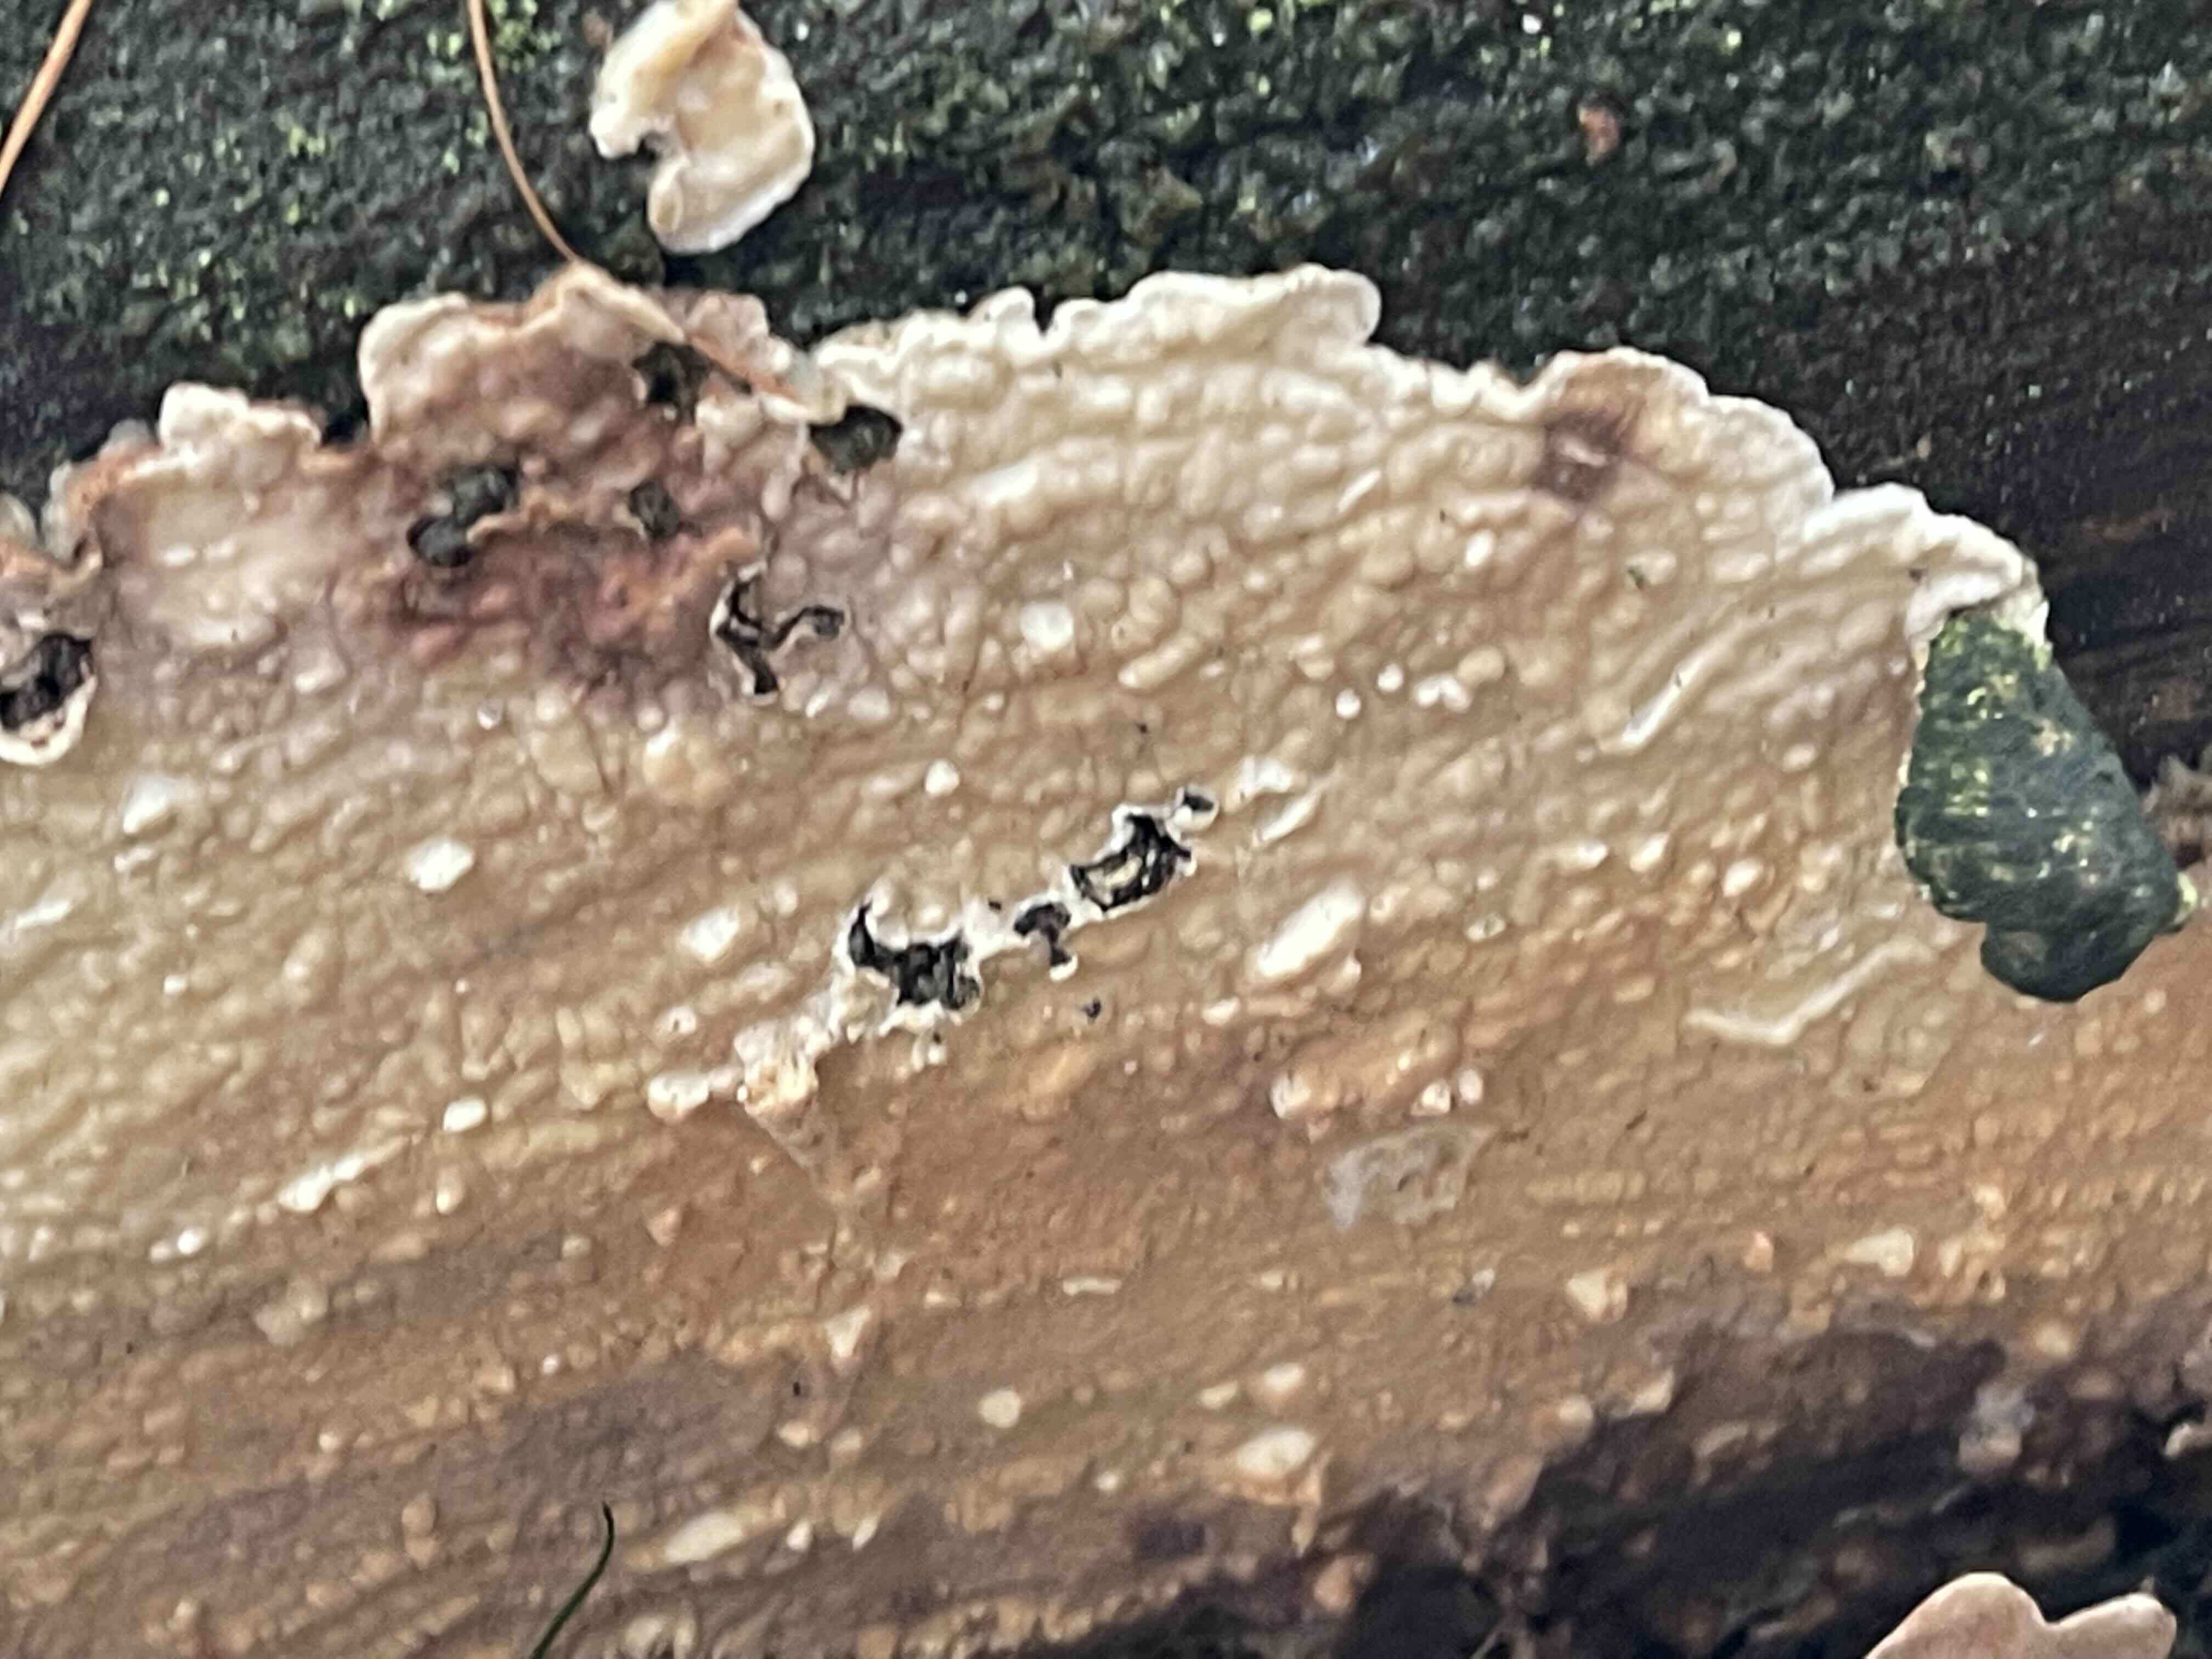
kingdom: Fungi
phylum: Basidiomycota
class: Agaricomycetes
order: Polyporales
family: Dacryobolaceae
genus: Dacryobolus
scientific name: Dacryobolus karstenii
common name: glat vulkanskorpe
